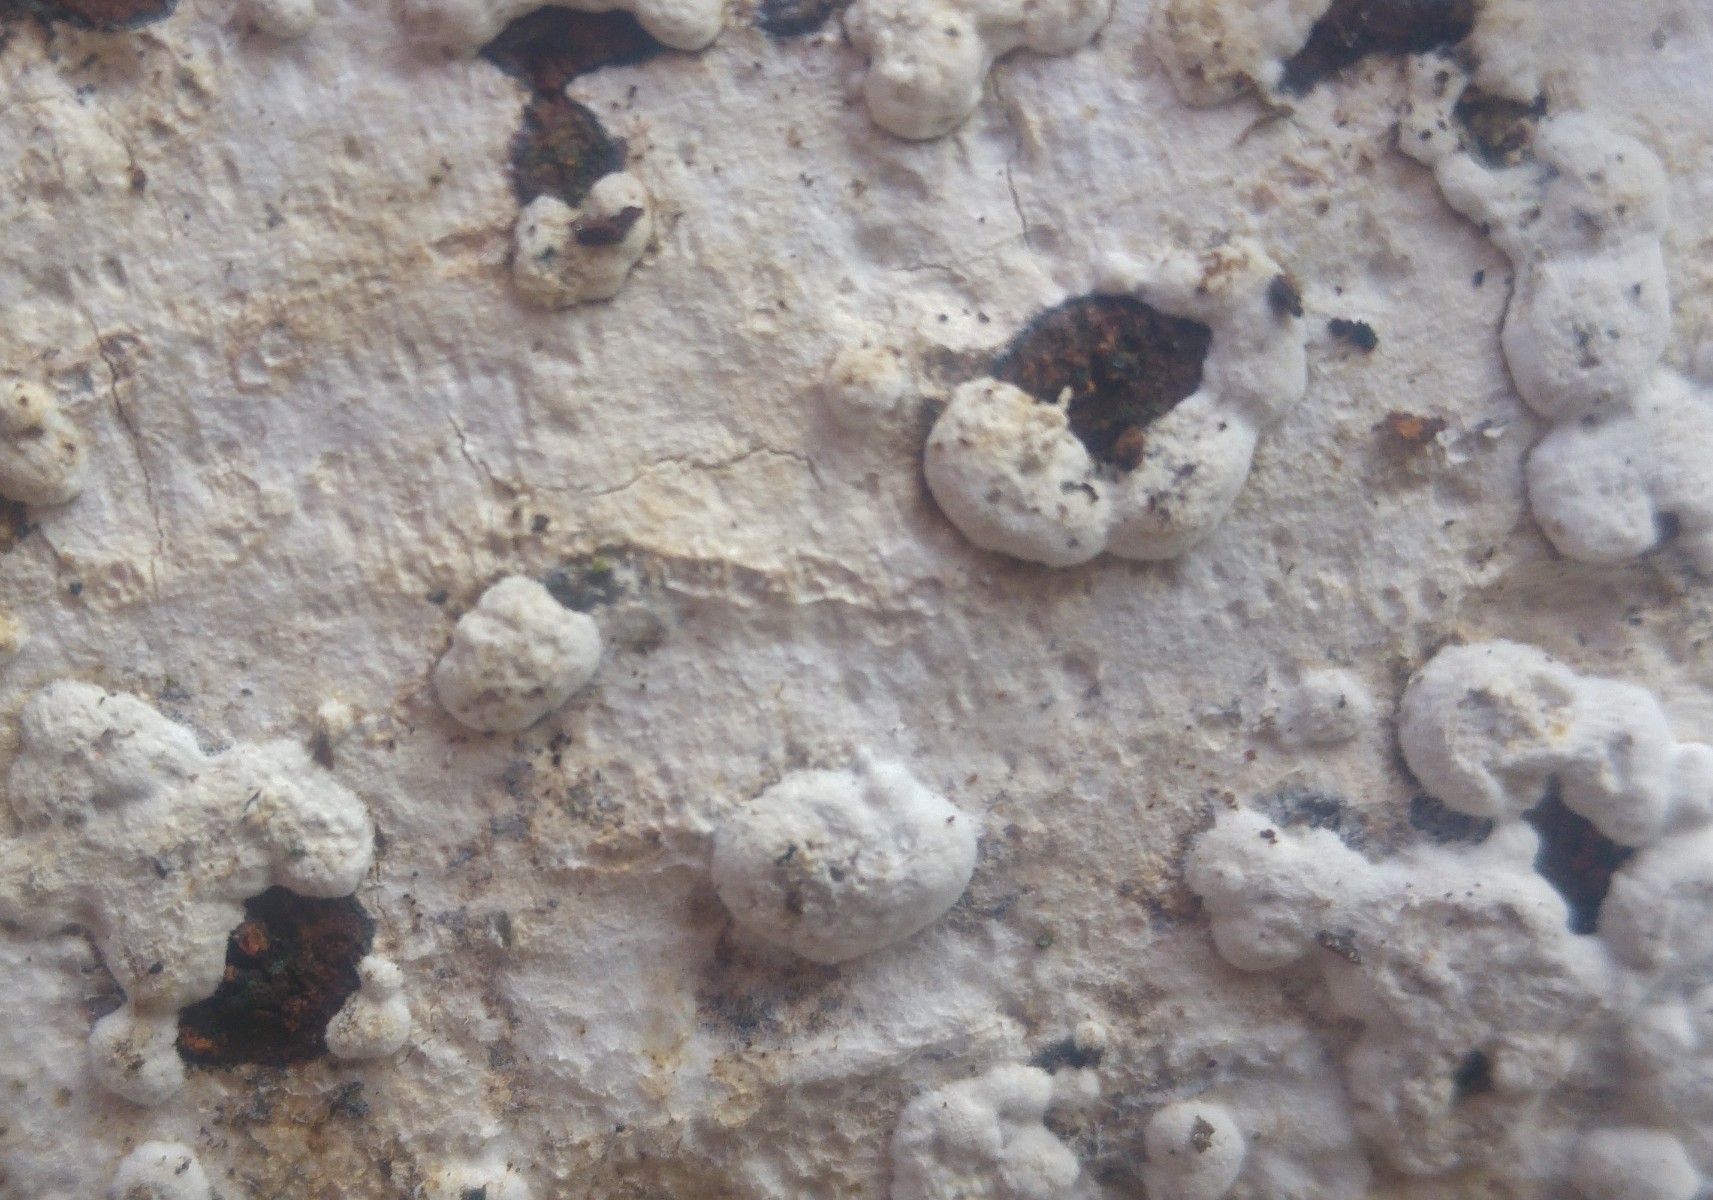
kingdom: Fungi
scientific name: Fungi
